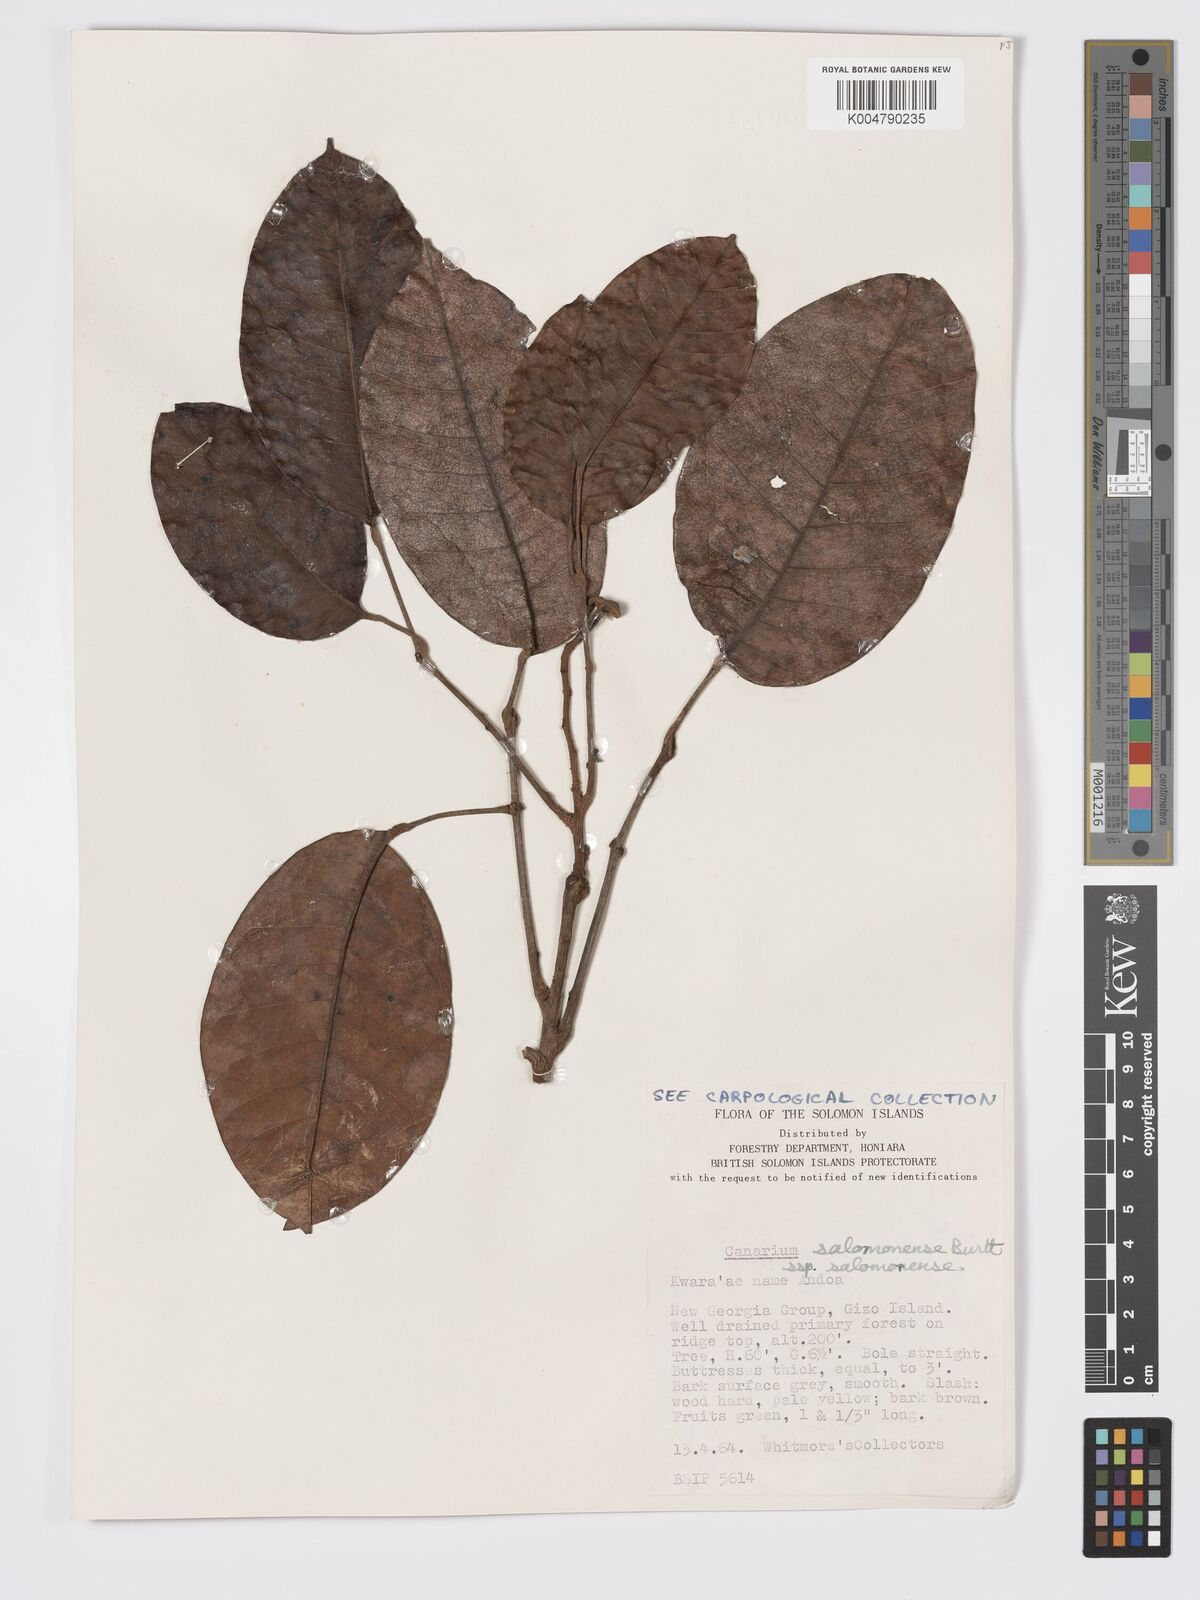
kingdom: Plantae
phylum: Tracheophyta
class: Magnoliopsida
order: Sapindales
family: Burseraceae
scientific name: Burseraceae
